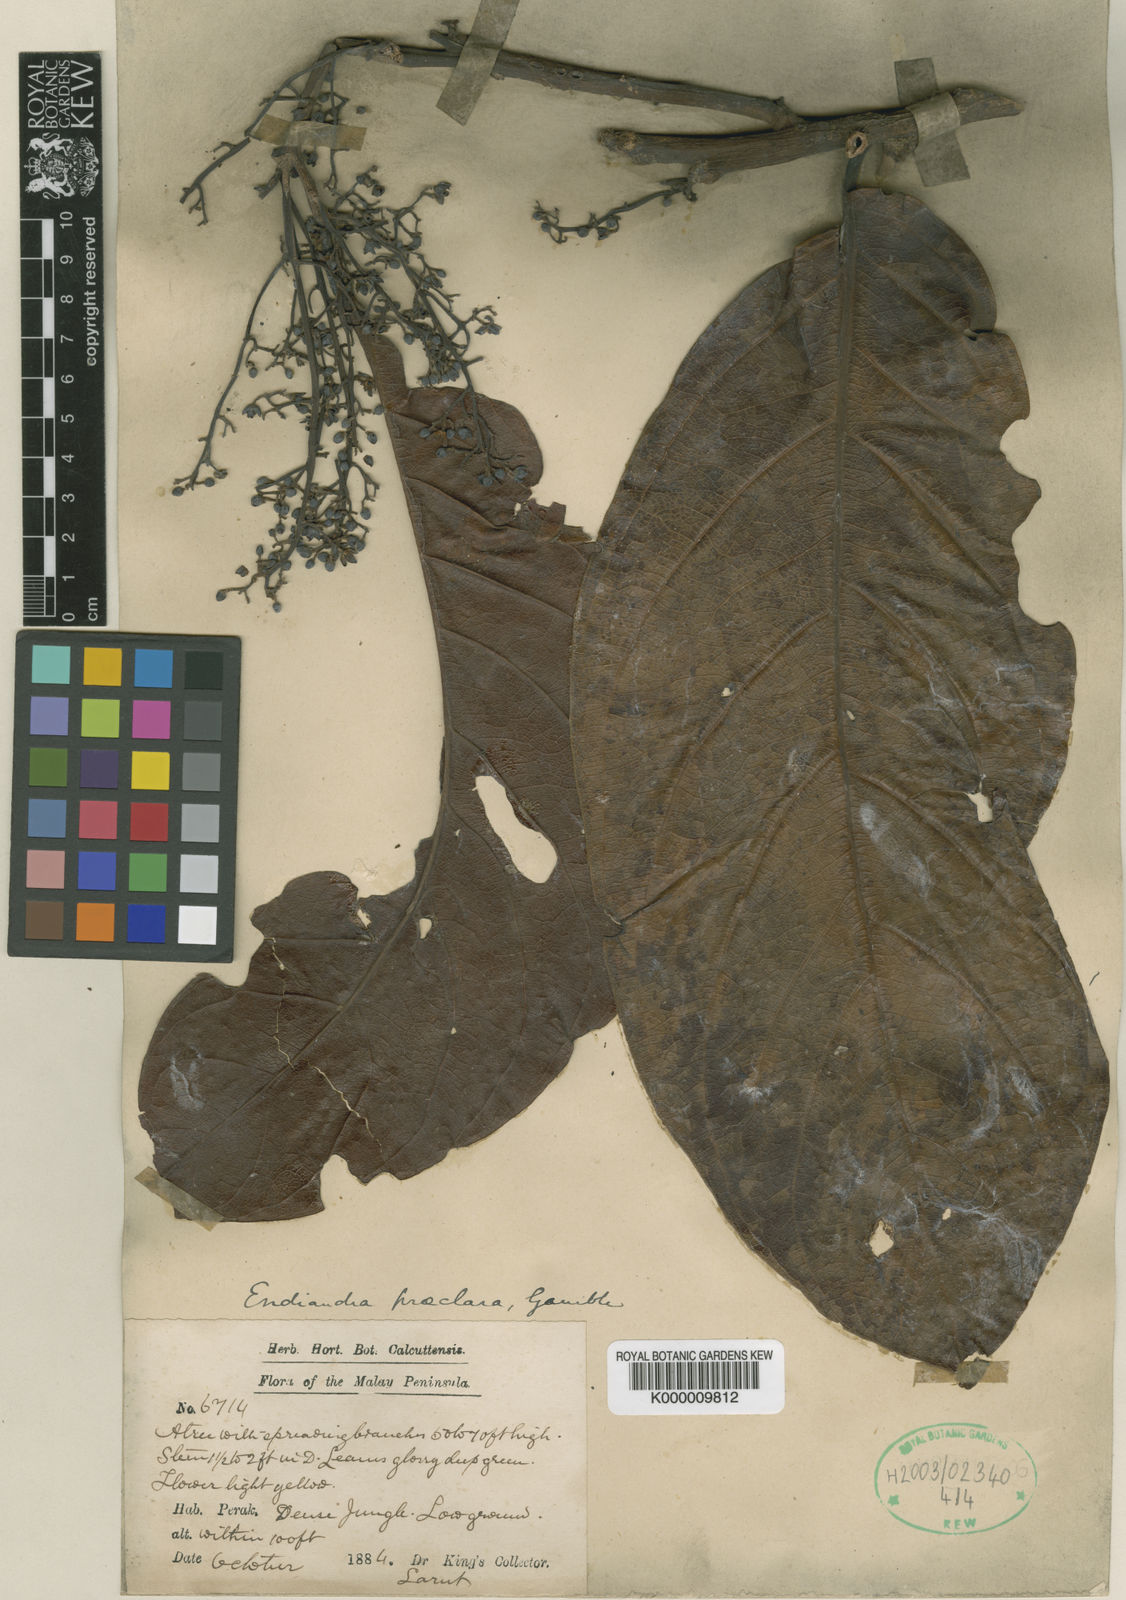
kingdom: Plantae
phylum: Tracheophyta
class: Magnoliopsida
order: Laurales
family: Lauraceae
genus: Endiandra
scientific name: Endiandra praeclara
